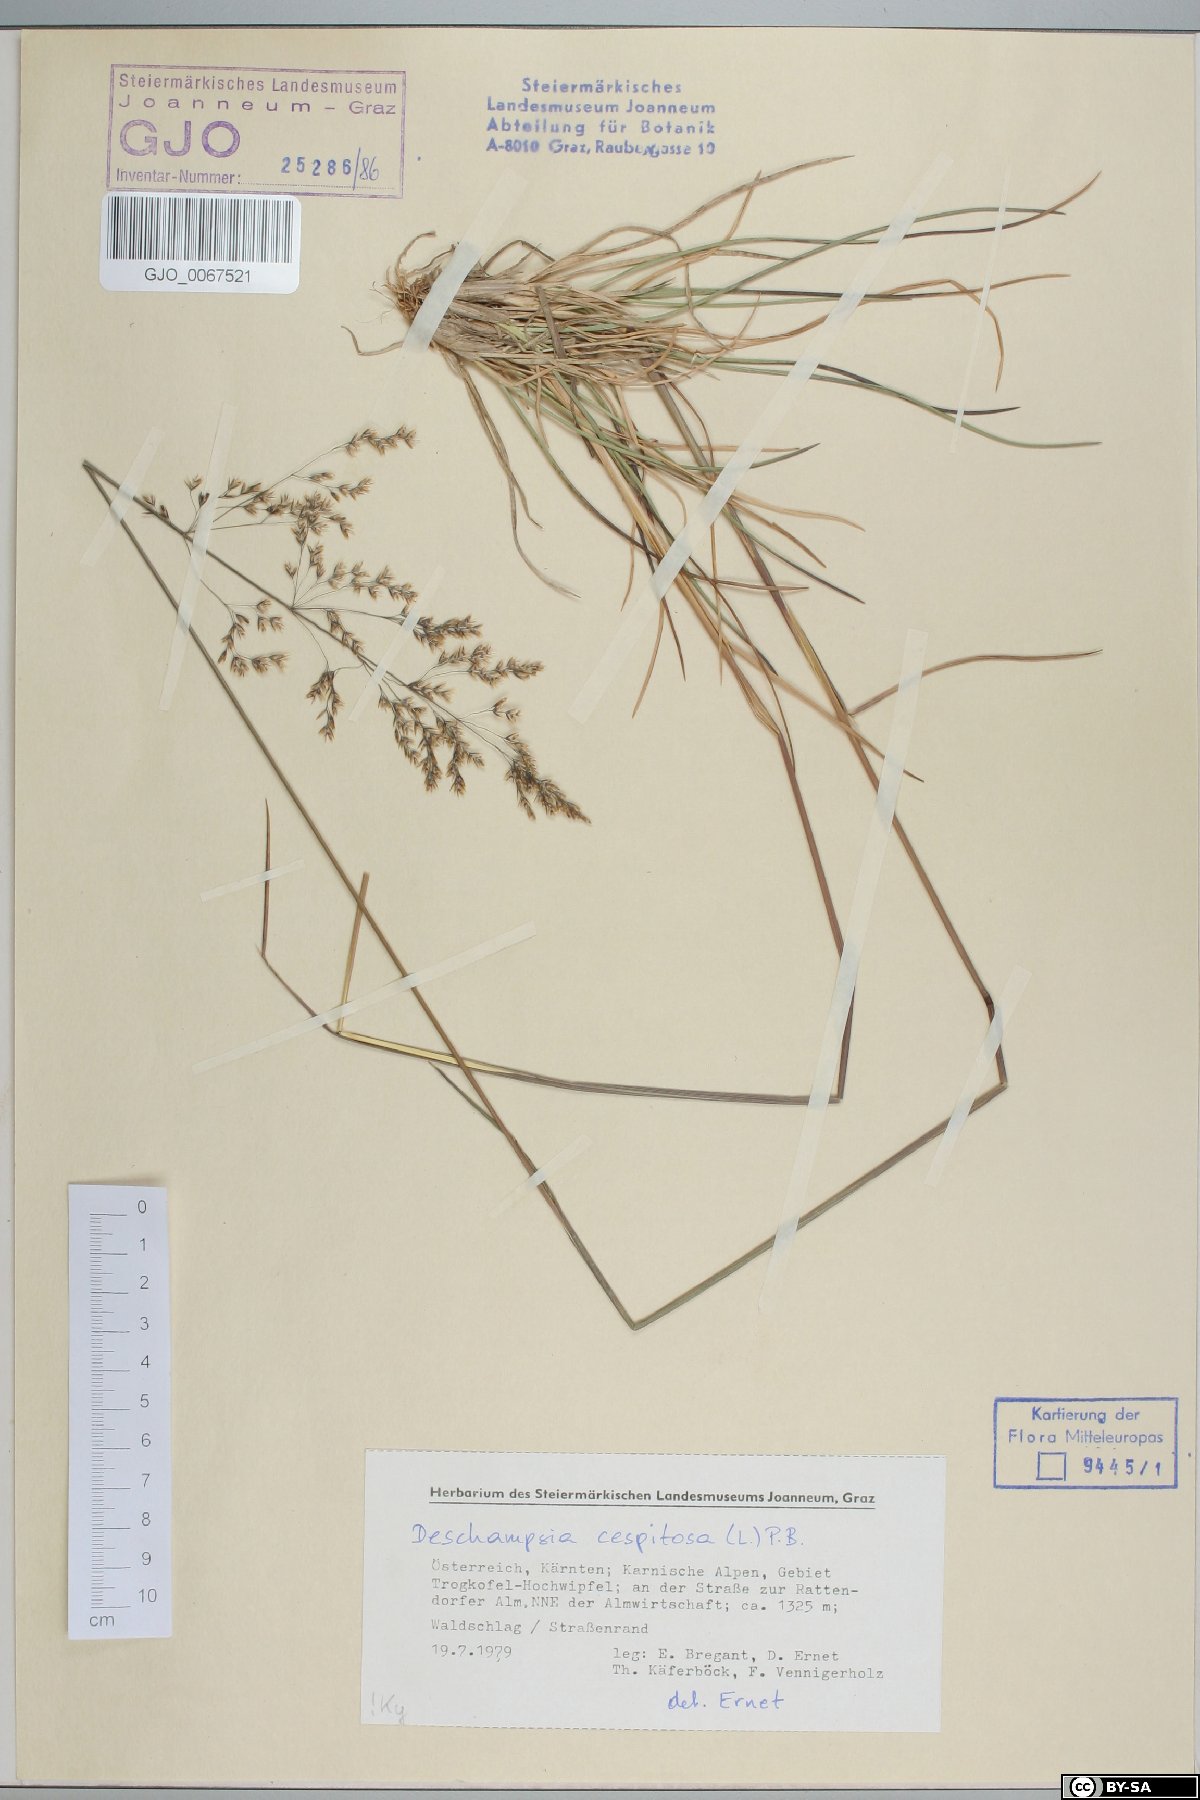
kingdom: Plantae
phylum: Tracheophyta
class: Liliopsida
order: Poales
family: Poaceae
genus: Deschampsia
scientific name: Deschampsia cespitosa
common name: Tufted hair-grass
